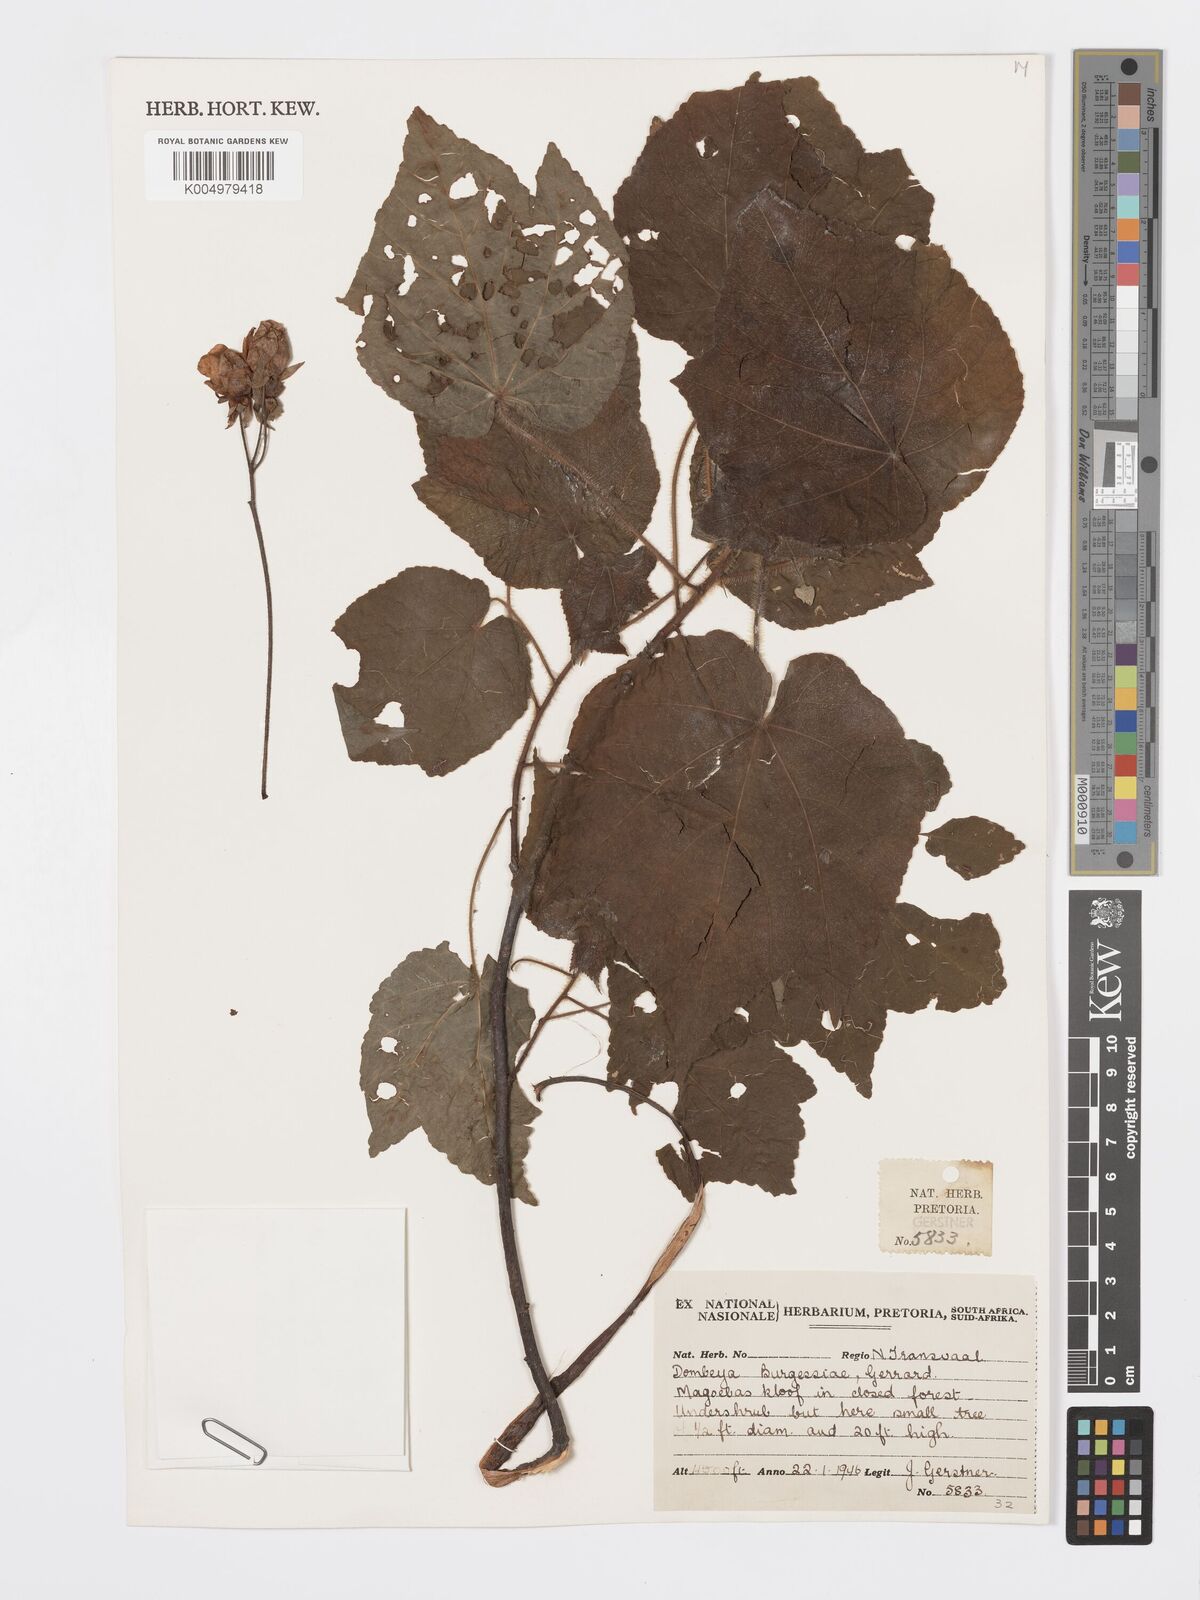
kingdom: Plantae
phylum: Tracheophyta
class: Magnoliopsida
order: Malvales
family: Malvaceae
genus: Dombeya
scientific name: Dombeya burgessiae
